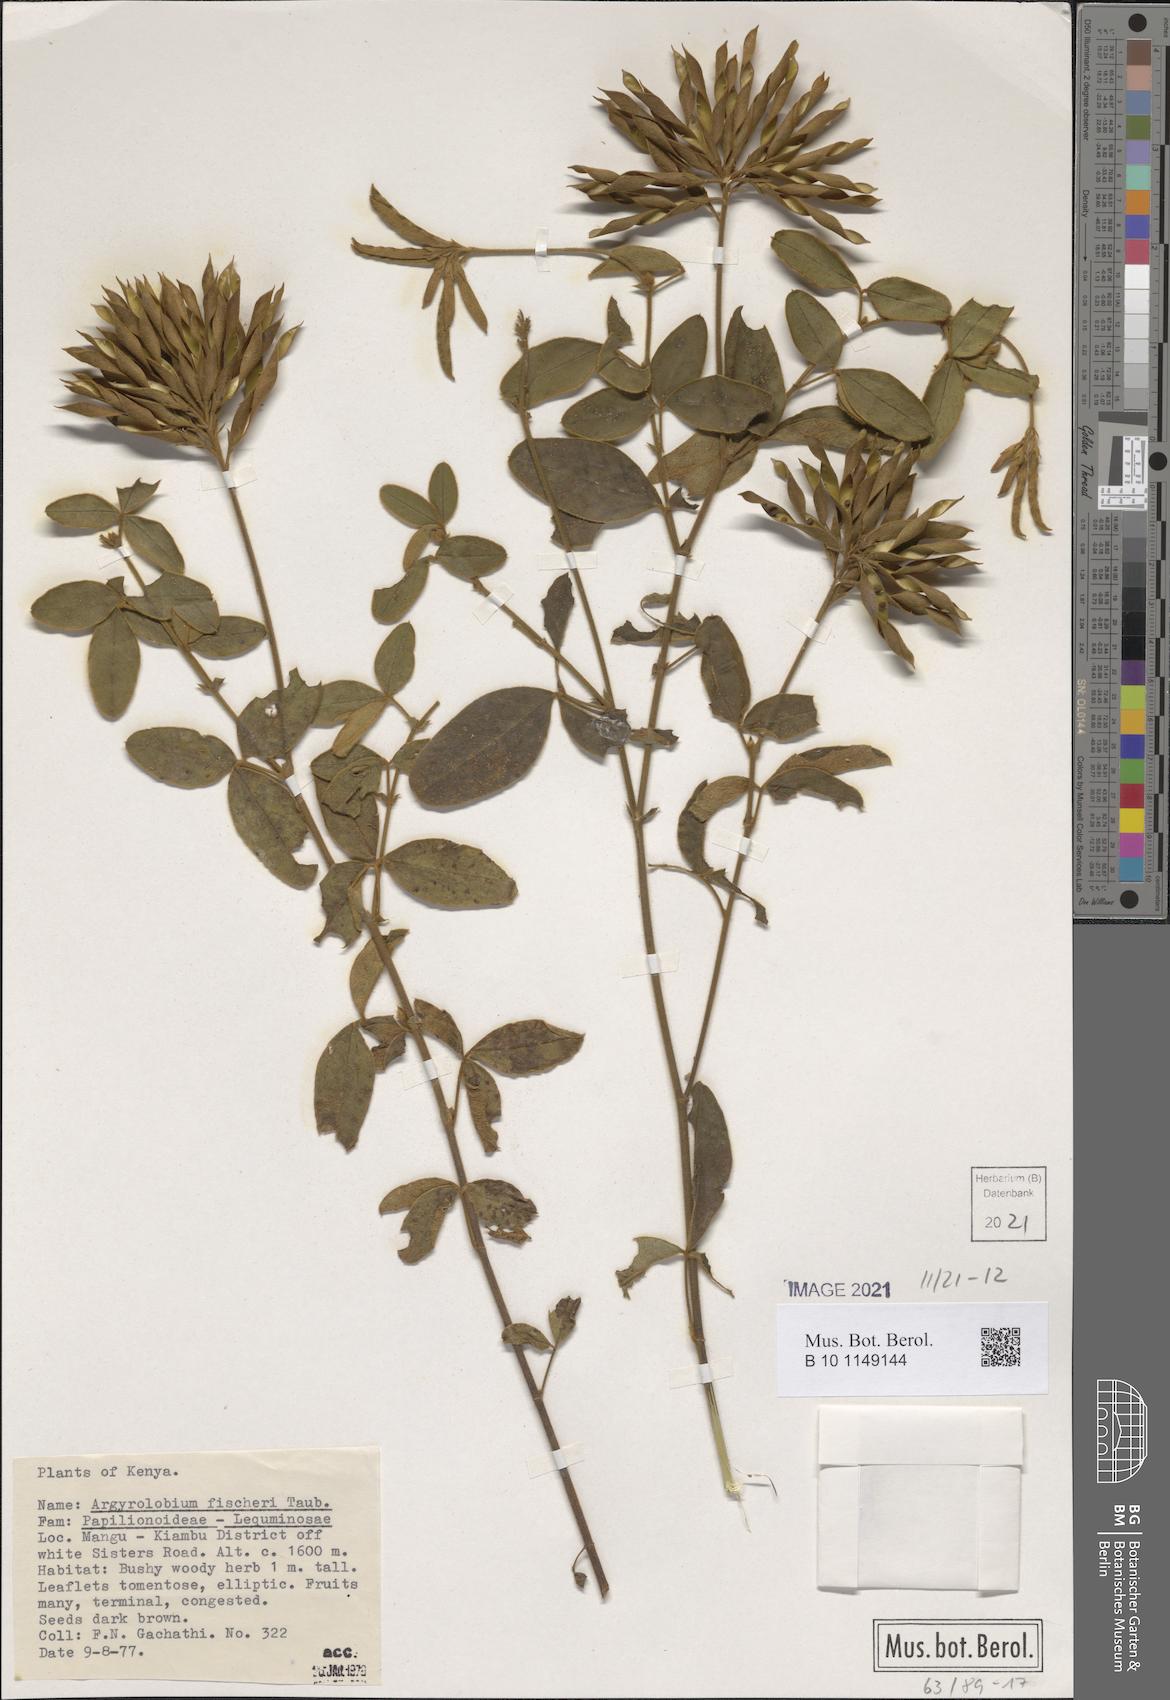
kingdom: Plantae
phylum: Tracheophyta
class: Magnoliopsida
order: Fabales
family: Fabaceae
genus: Argyrolobium
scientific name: Argyrolobium fischeri
